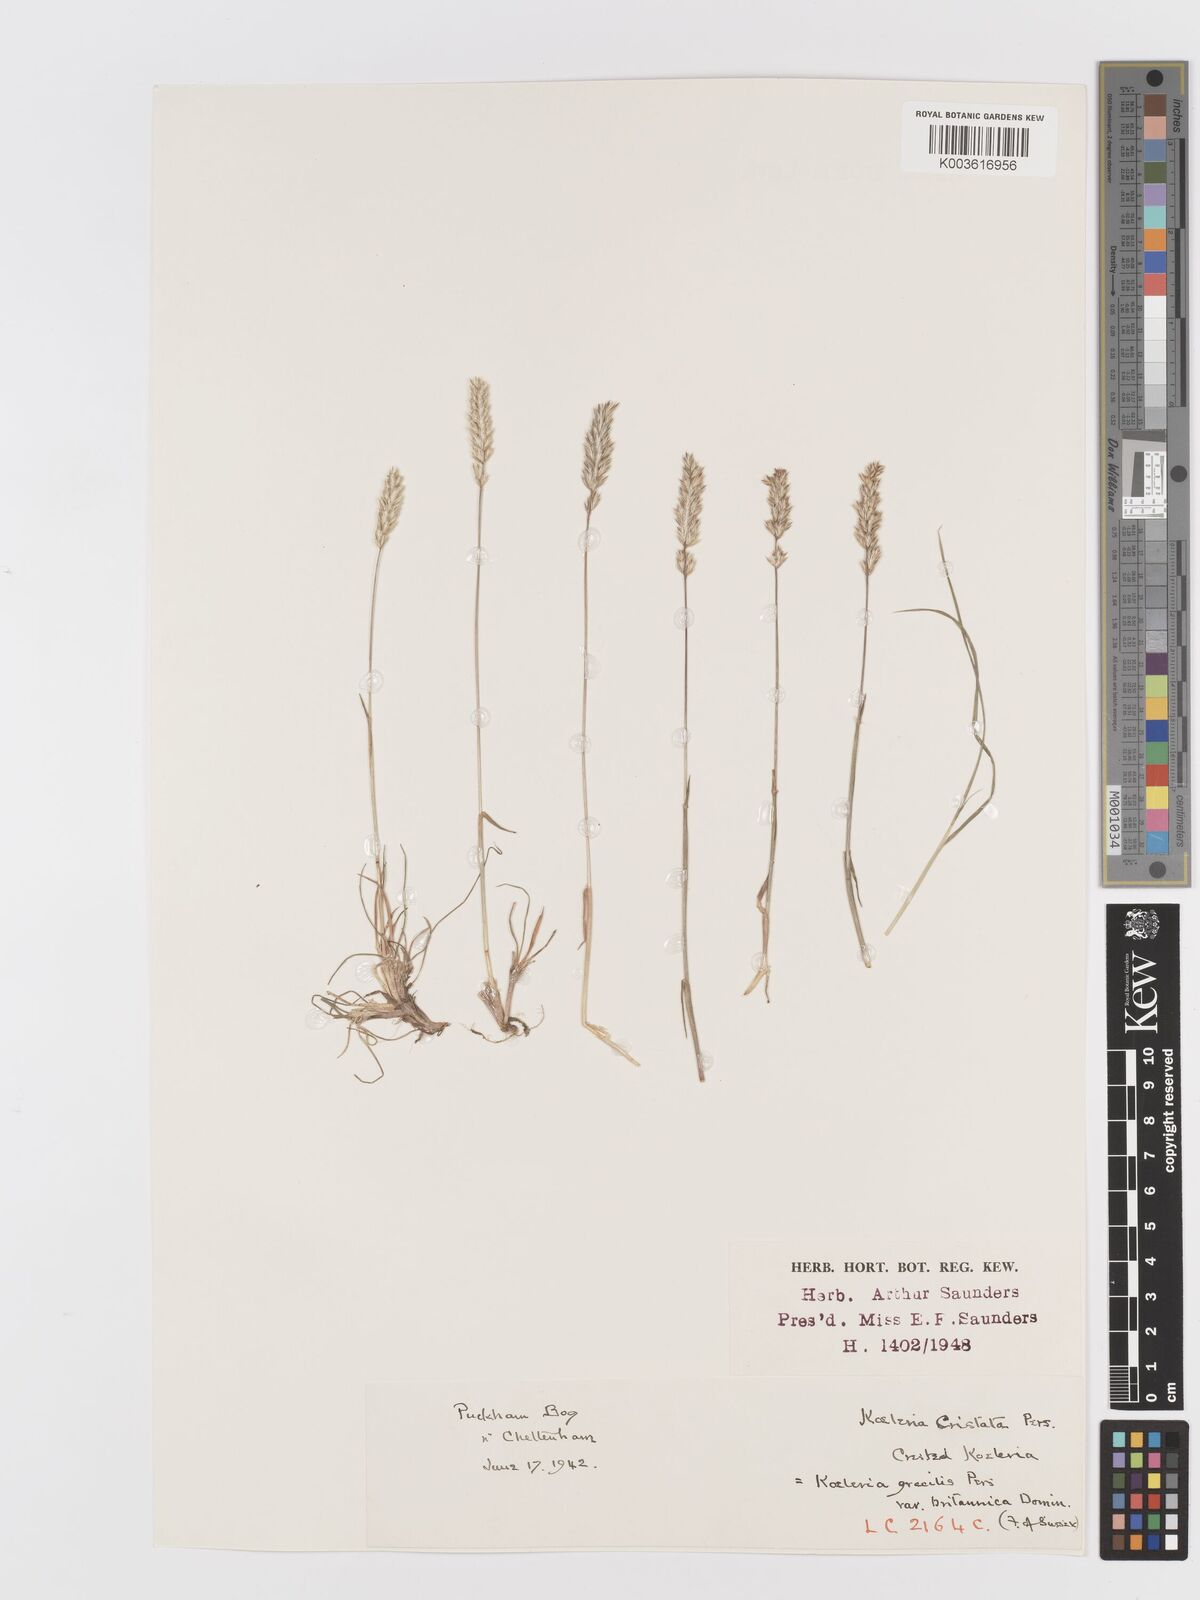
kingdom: Plantae
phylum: Tracheophyta
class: Liliopsida
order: Poales
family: Poaceae
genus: Koeleria
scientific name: Koeleria macrantha
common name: Crested hair-grass
